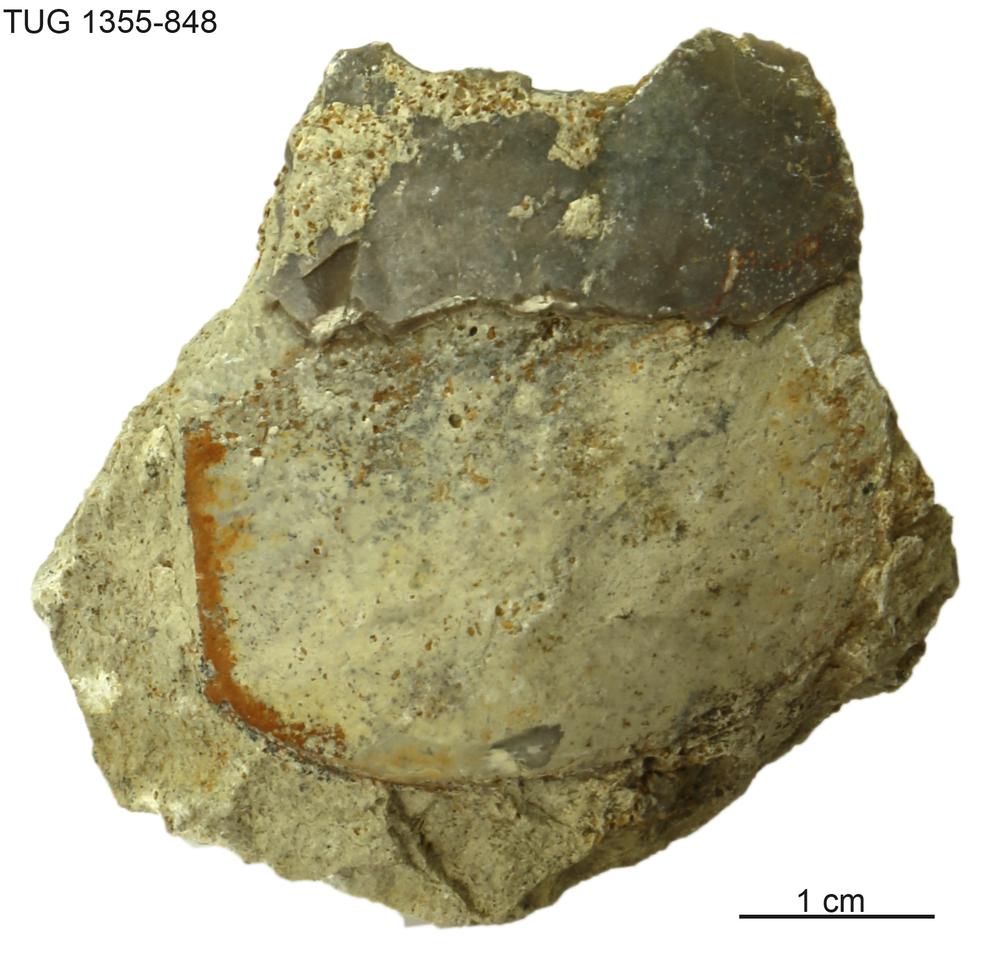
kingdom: Animalia
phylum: Arthropoda
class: Trilobita
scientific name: Trilobita
